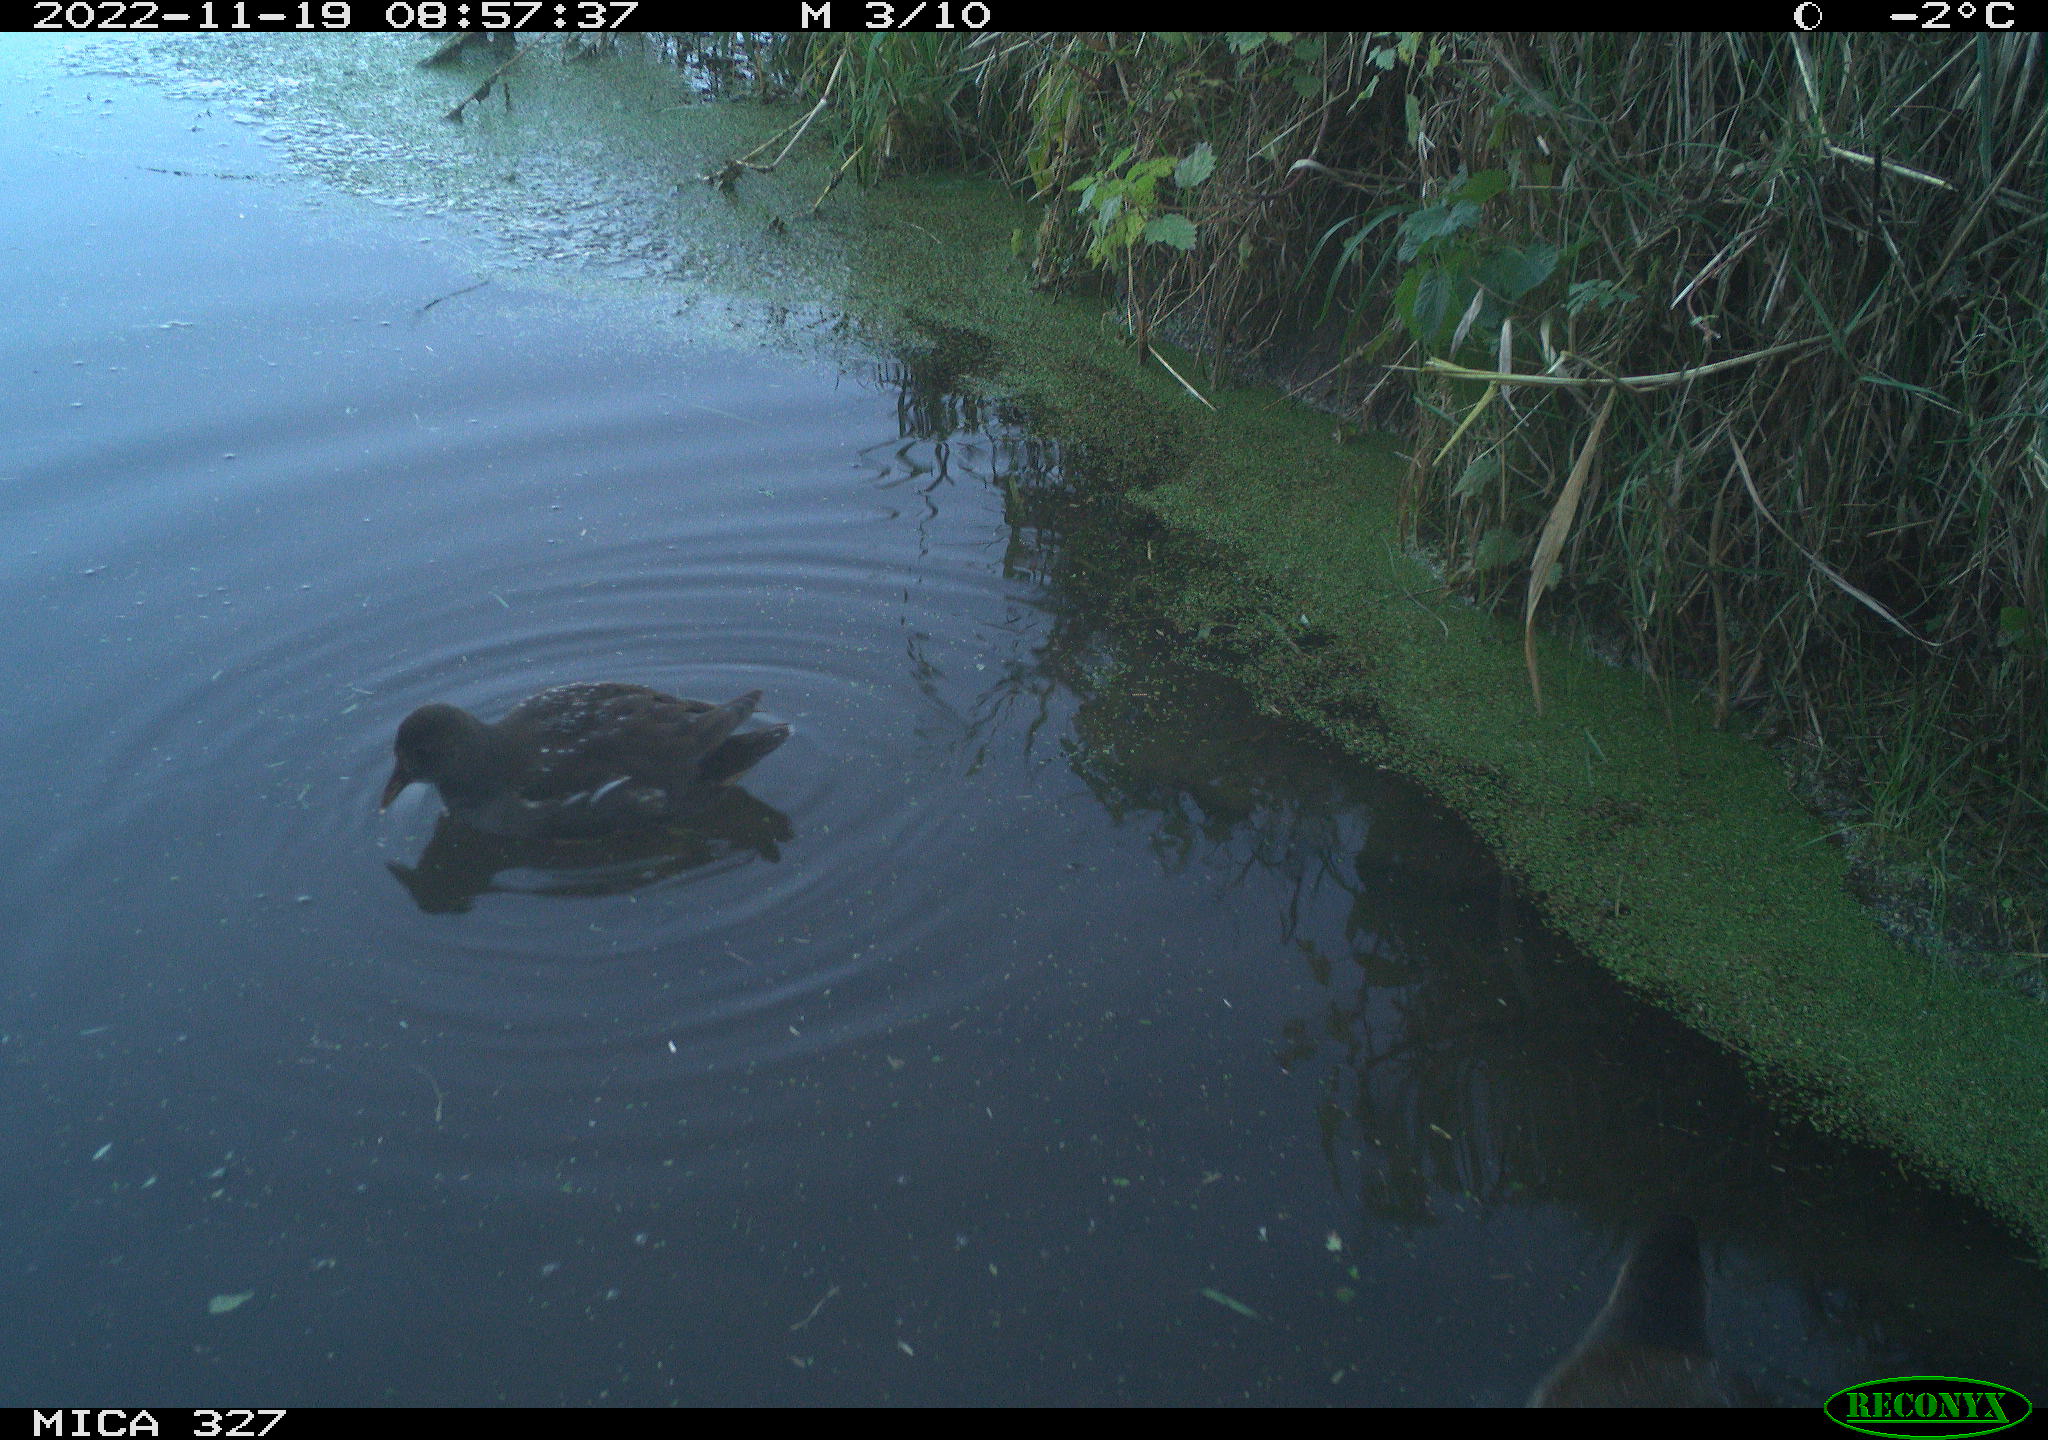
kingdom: Animalia
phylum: Chordata
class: Aves
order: Gruiformes
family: Rallidae
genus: Gallinula
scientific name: Gallinula chloropus
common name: Common moorhen
